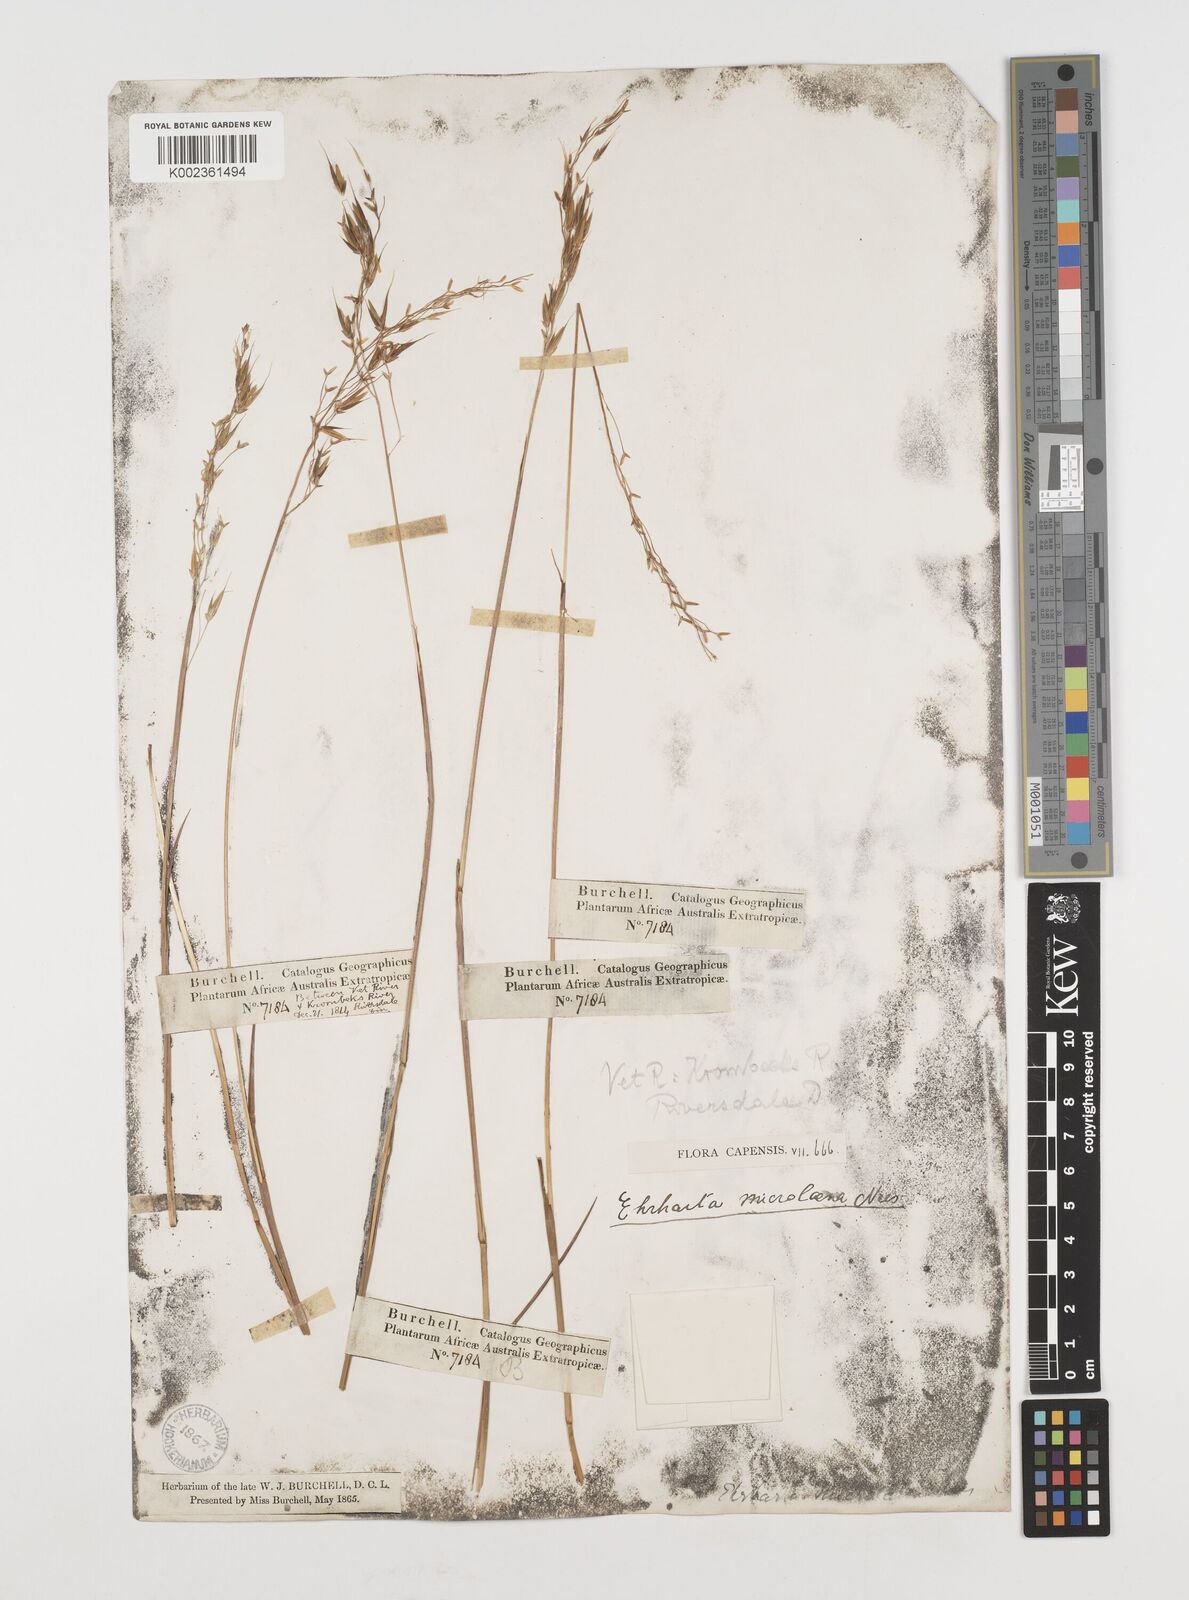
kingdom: Plantae
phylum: Tracheophyta
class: Liliopsida
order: Poales
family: Poaceae
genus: Ehrharta
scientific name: Ehrharta dura
